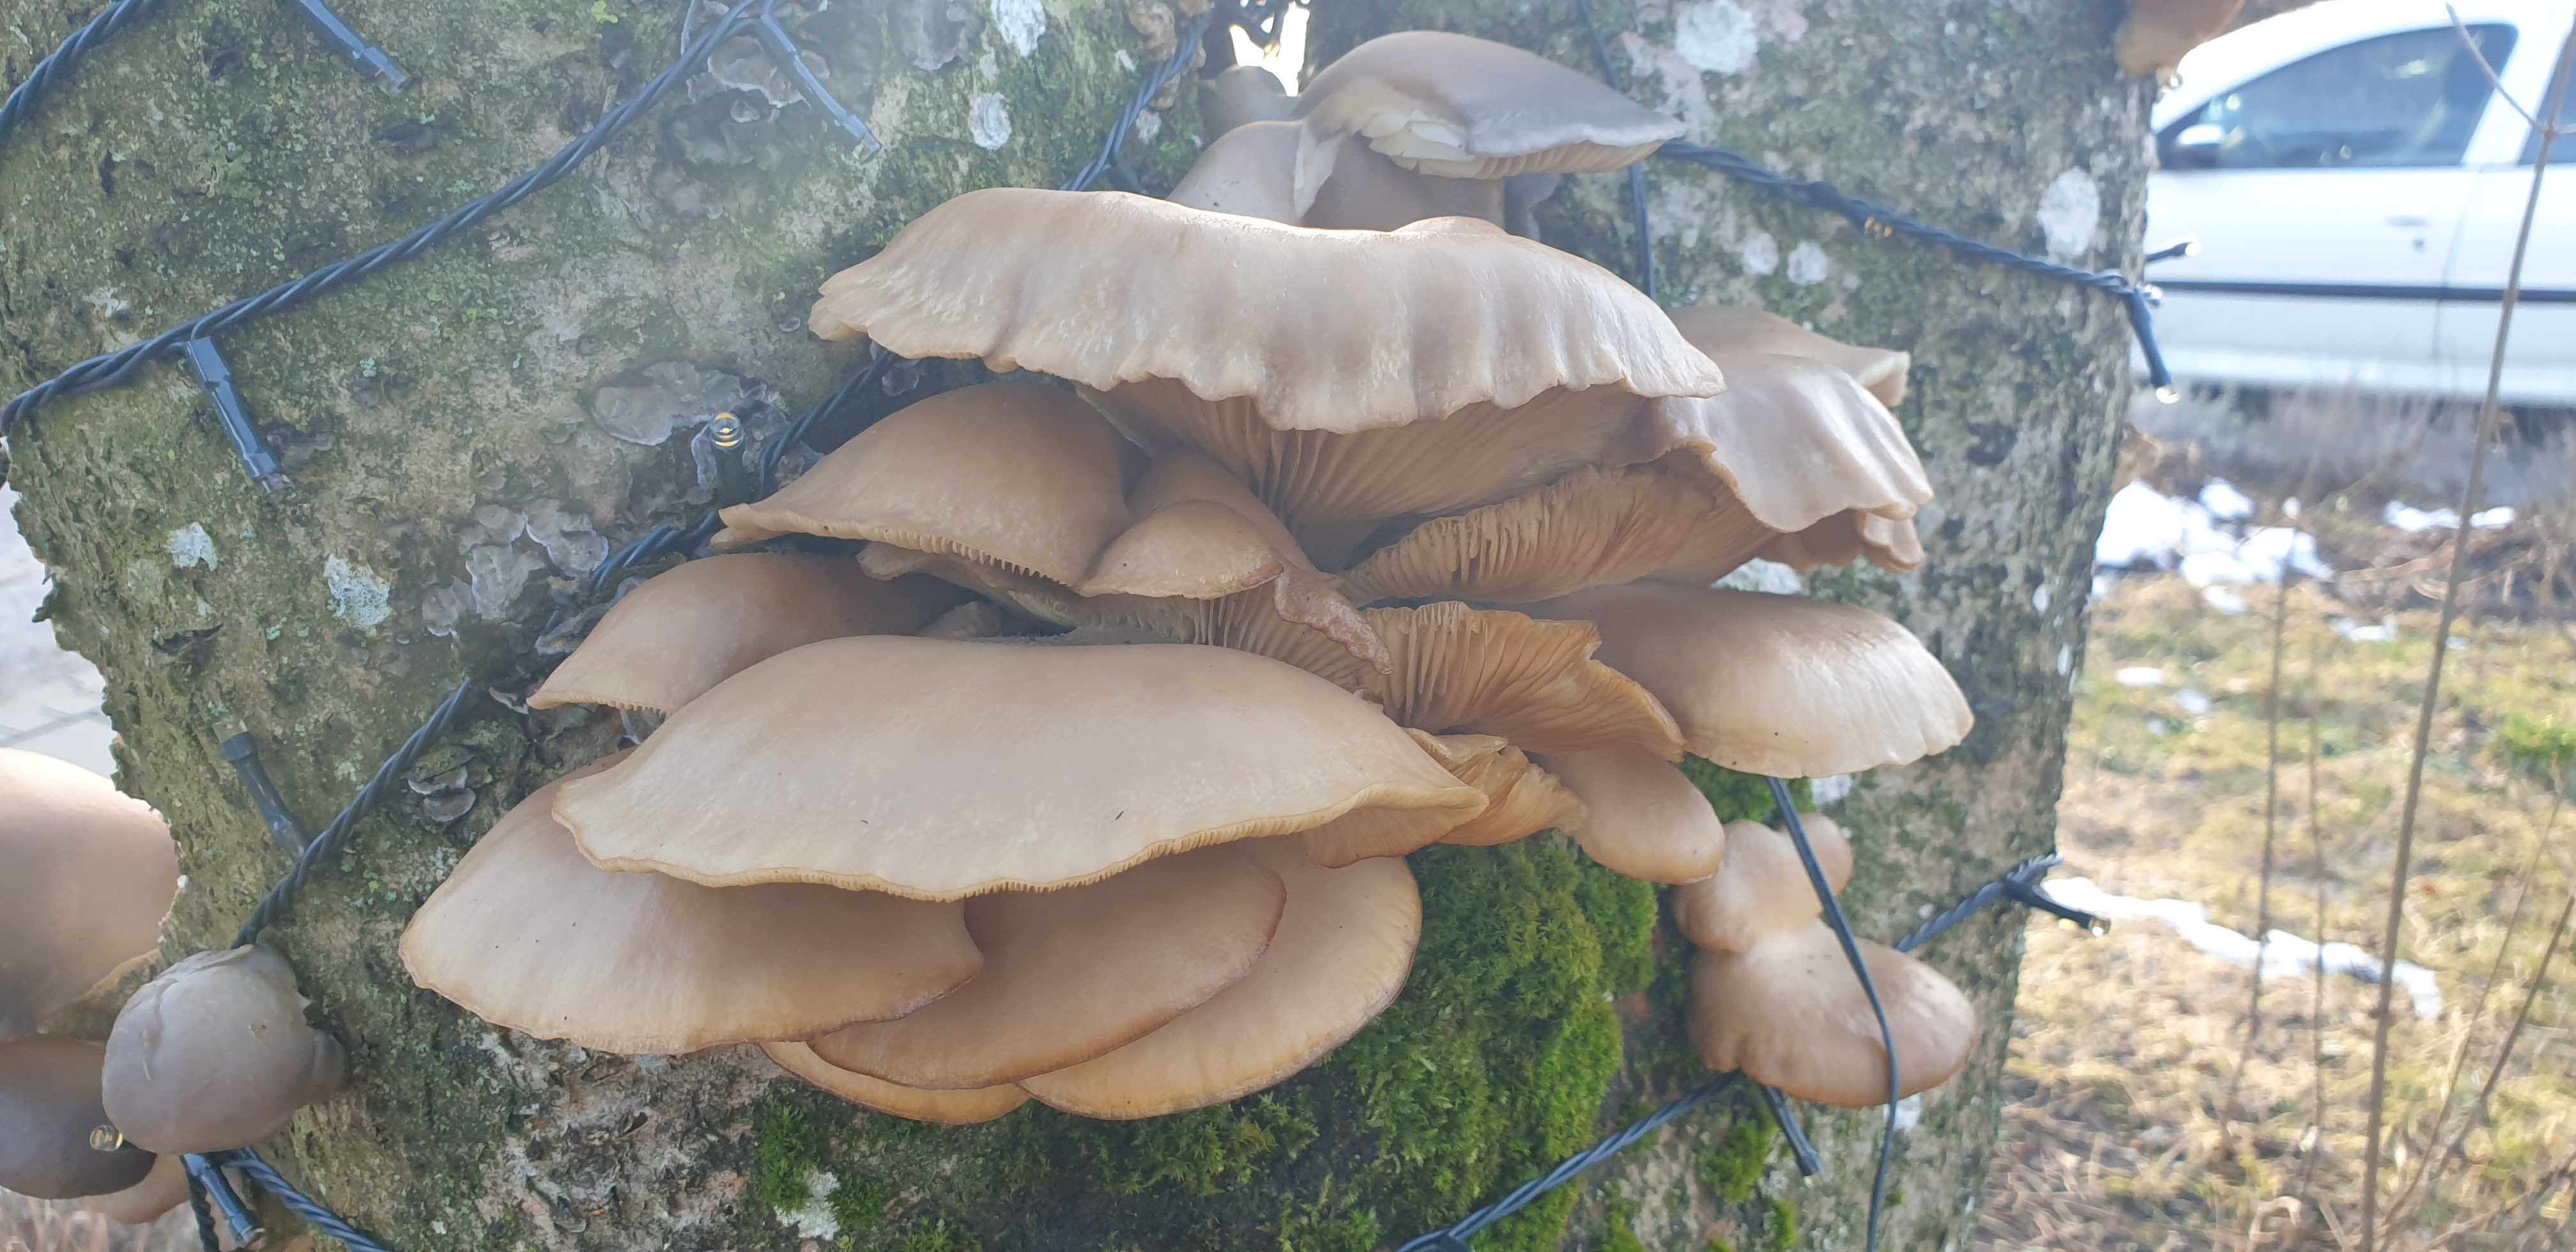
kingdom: Fungi
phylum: Basidiomycota
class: Agaricomycetes
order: Agaricales
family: Pleurotaceae
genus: Pleurotus
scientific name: Pleurotus ostreatus
